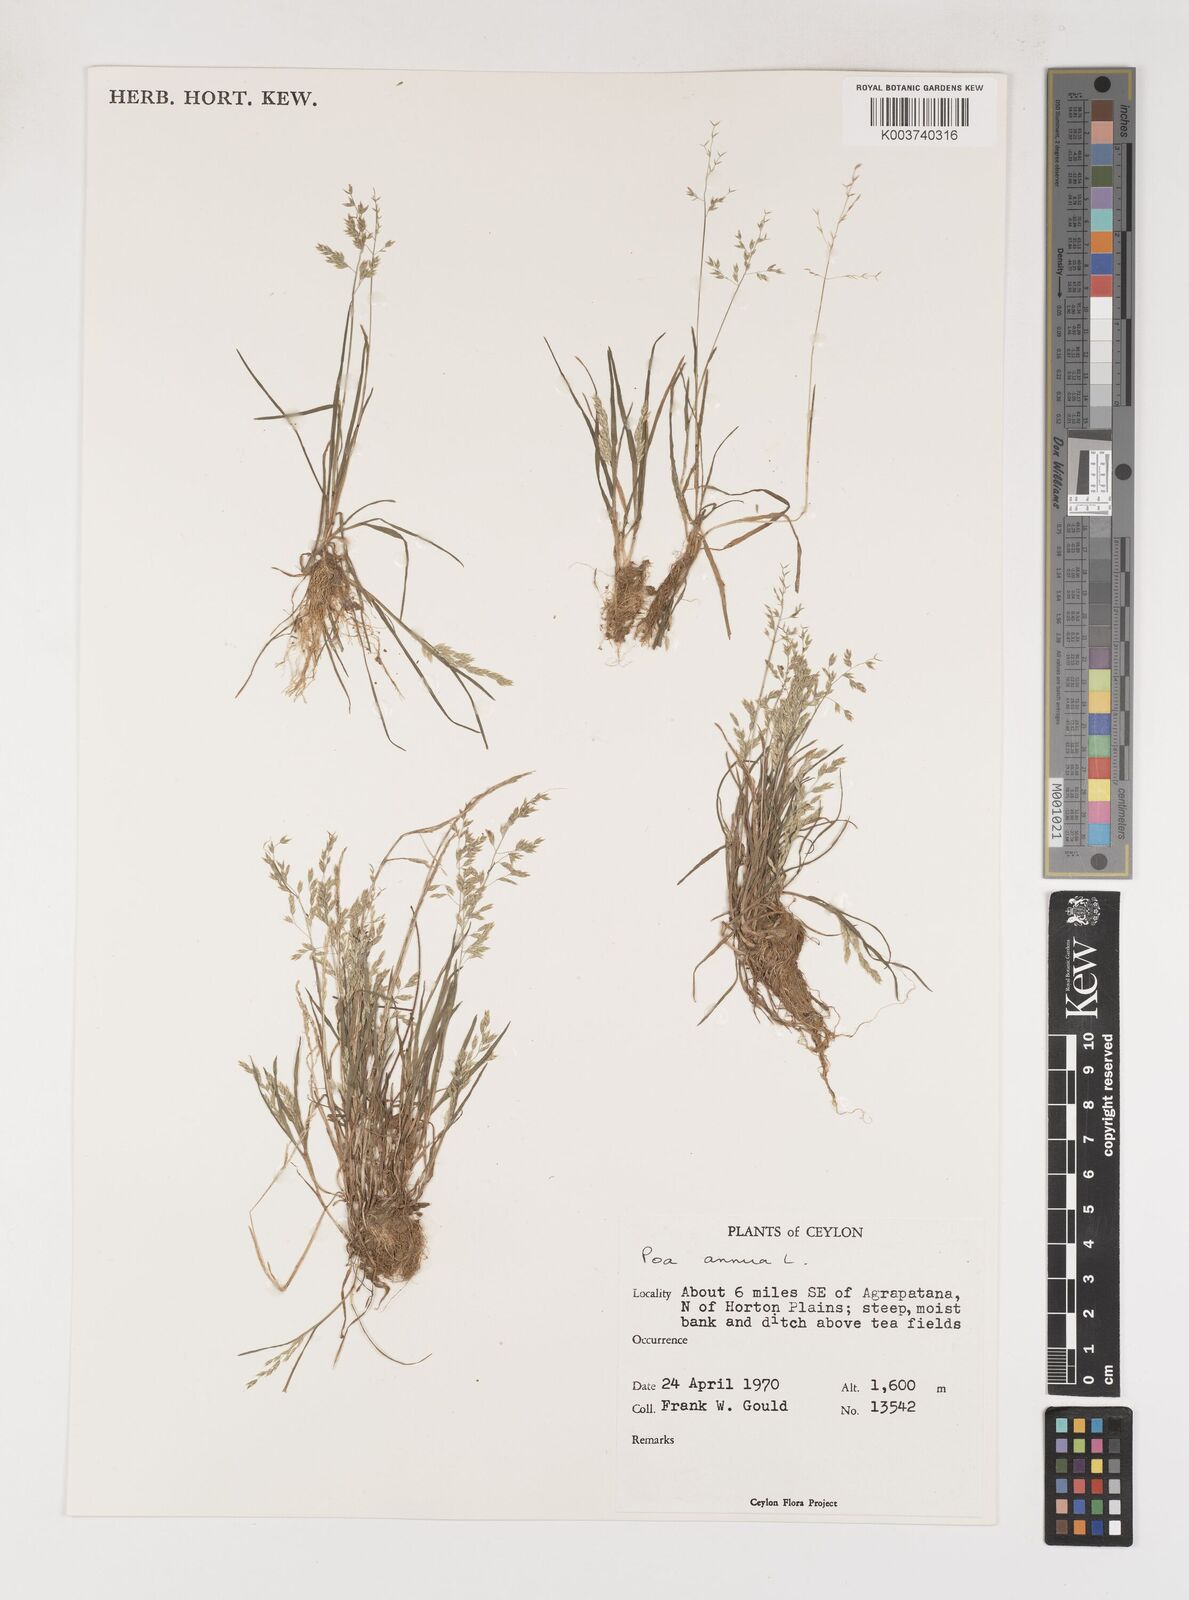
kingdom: Plantae
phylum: Tracheophyta
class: Liliopsida
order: Poales
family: Poaceae
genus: Poa
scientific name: Poa annua
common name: Annual bluegrass
